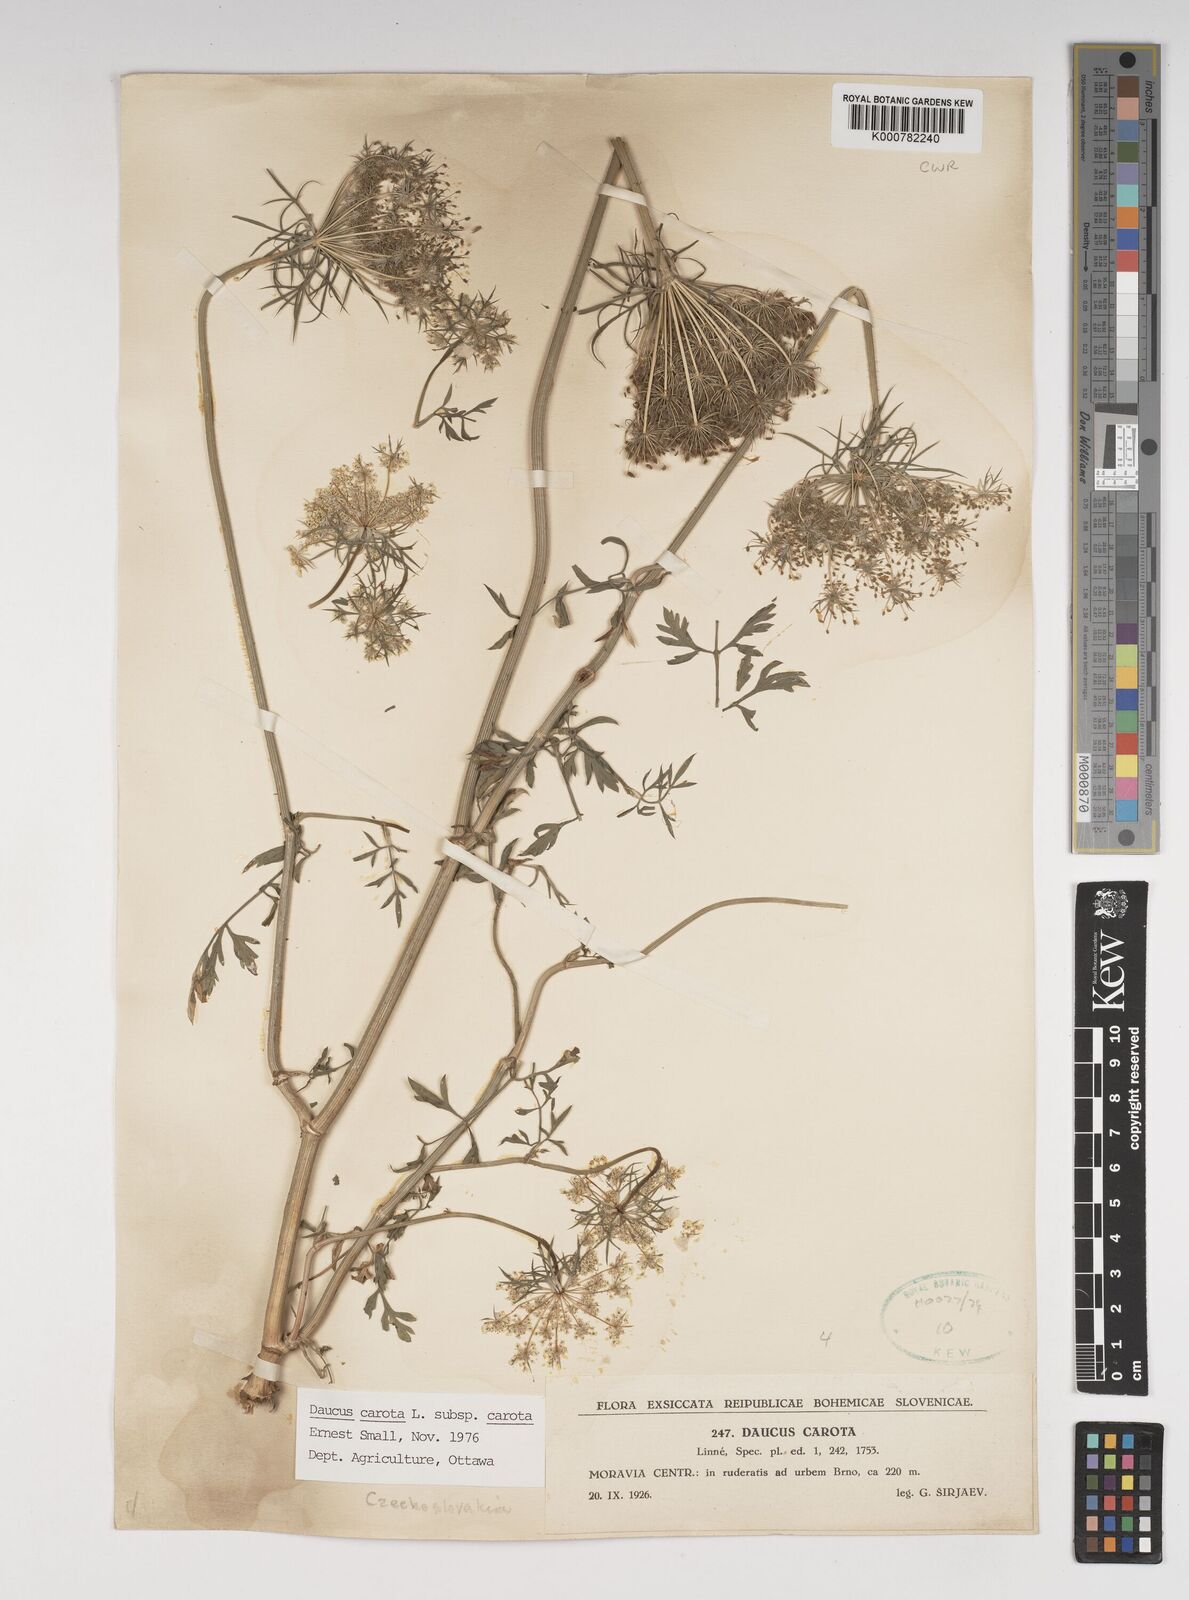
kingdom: Plantae
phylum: Tracheophyta
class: Magnoliopsida
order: Apiales
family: Apiaceae
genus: Daucus
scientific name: Daucus carota
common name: Wild carrot
